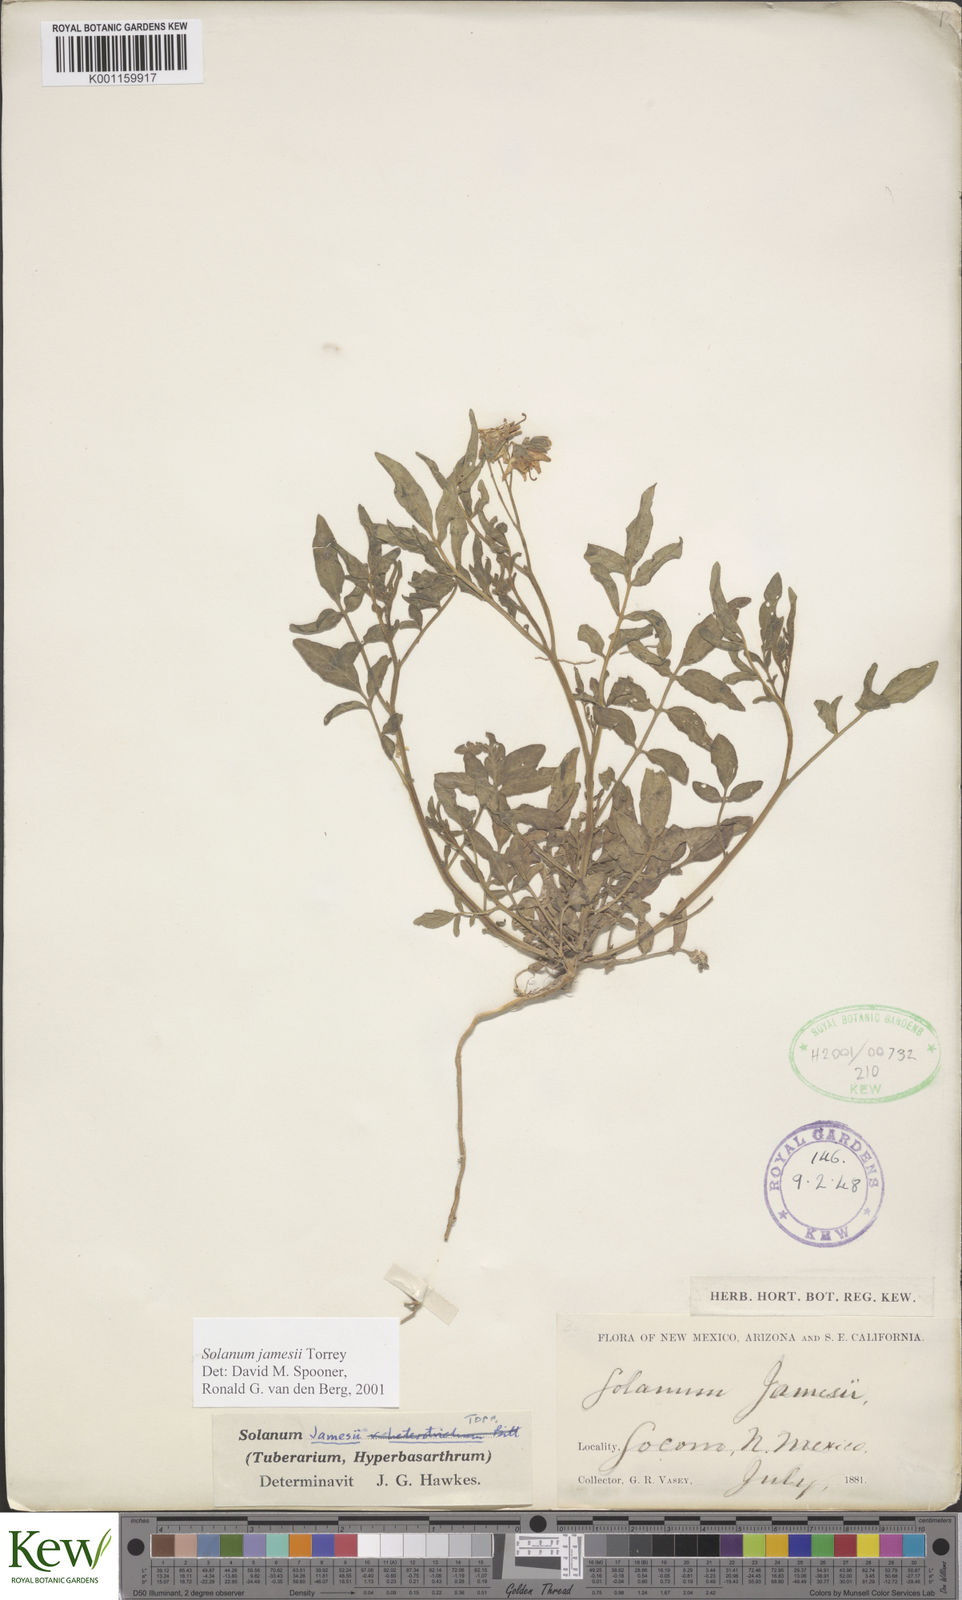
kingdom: Plantae
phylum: Tracheophyta
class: Magnoliopsida
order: Solanales
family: Solanaceae
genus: Solanum
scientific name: Solanum jamesii
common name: Wild potato
